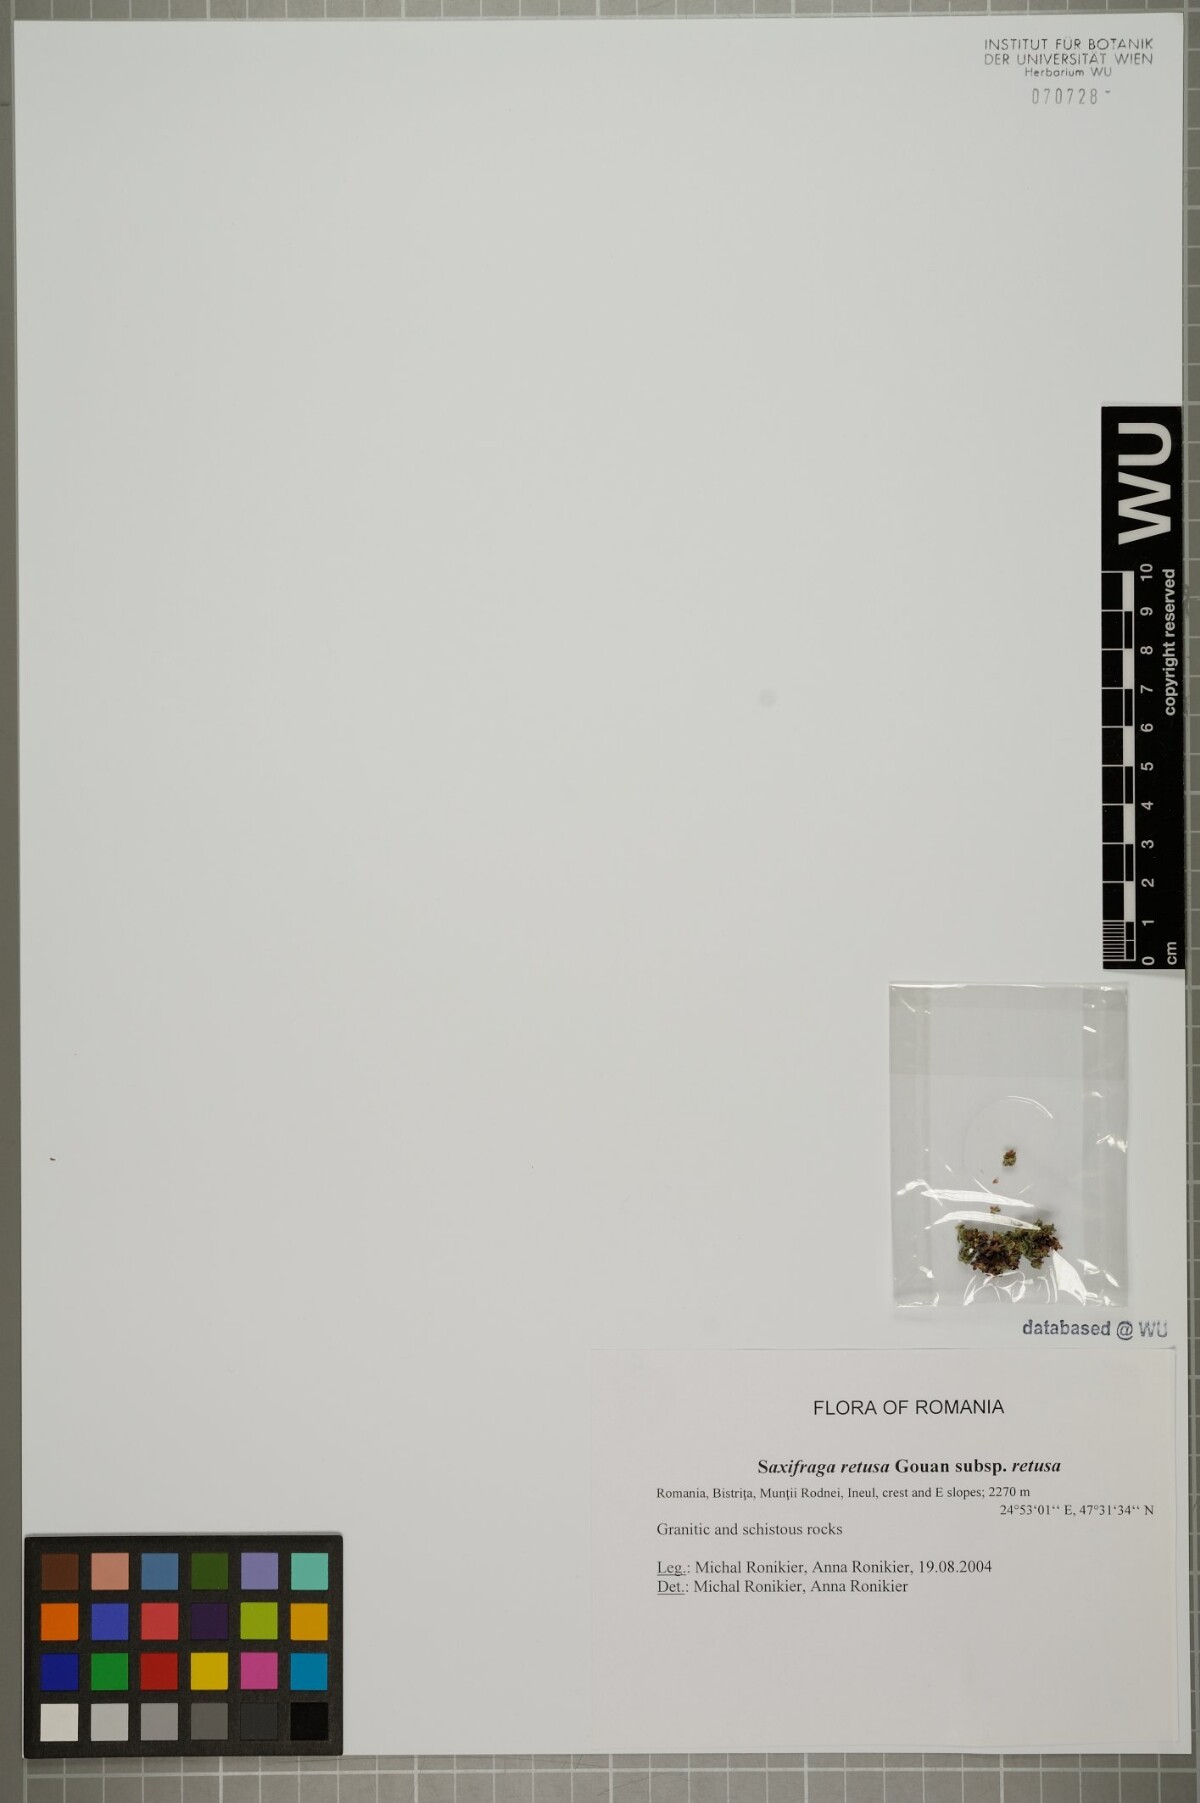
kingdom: Plantae
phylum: Tracheophyta
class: Magnoliopsida
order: Saxifragales
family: Saxifragaceae
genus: Saxifraga
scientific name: Saxifraga retusa
